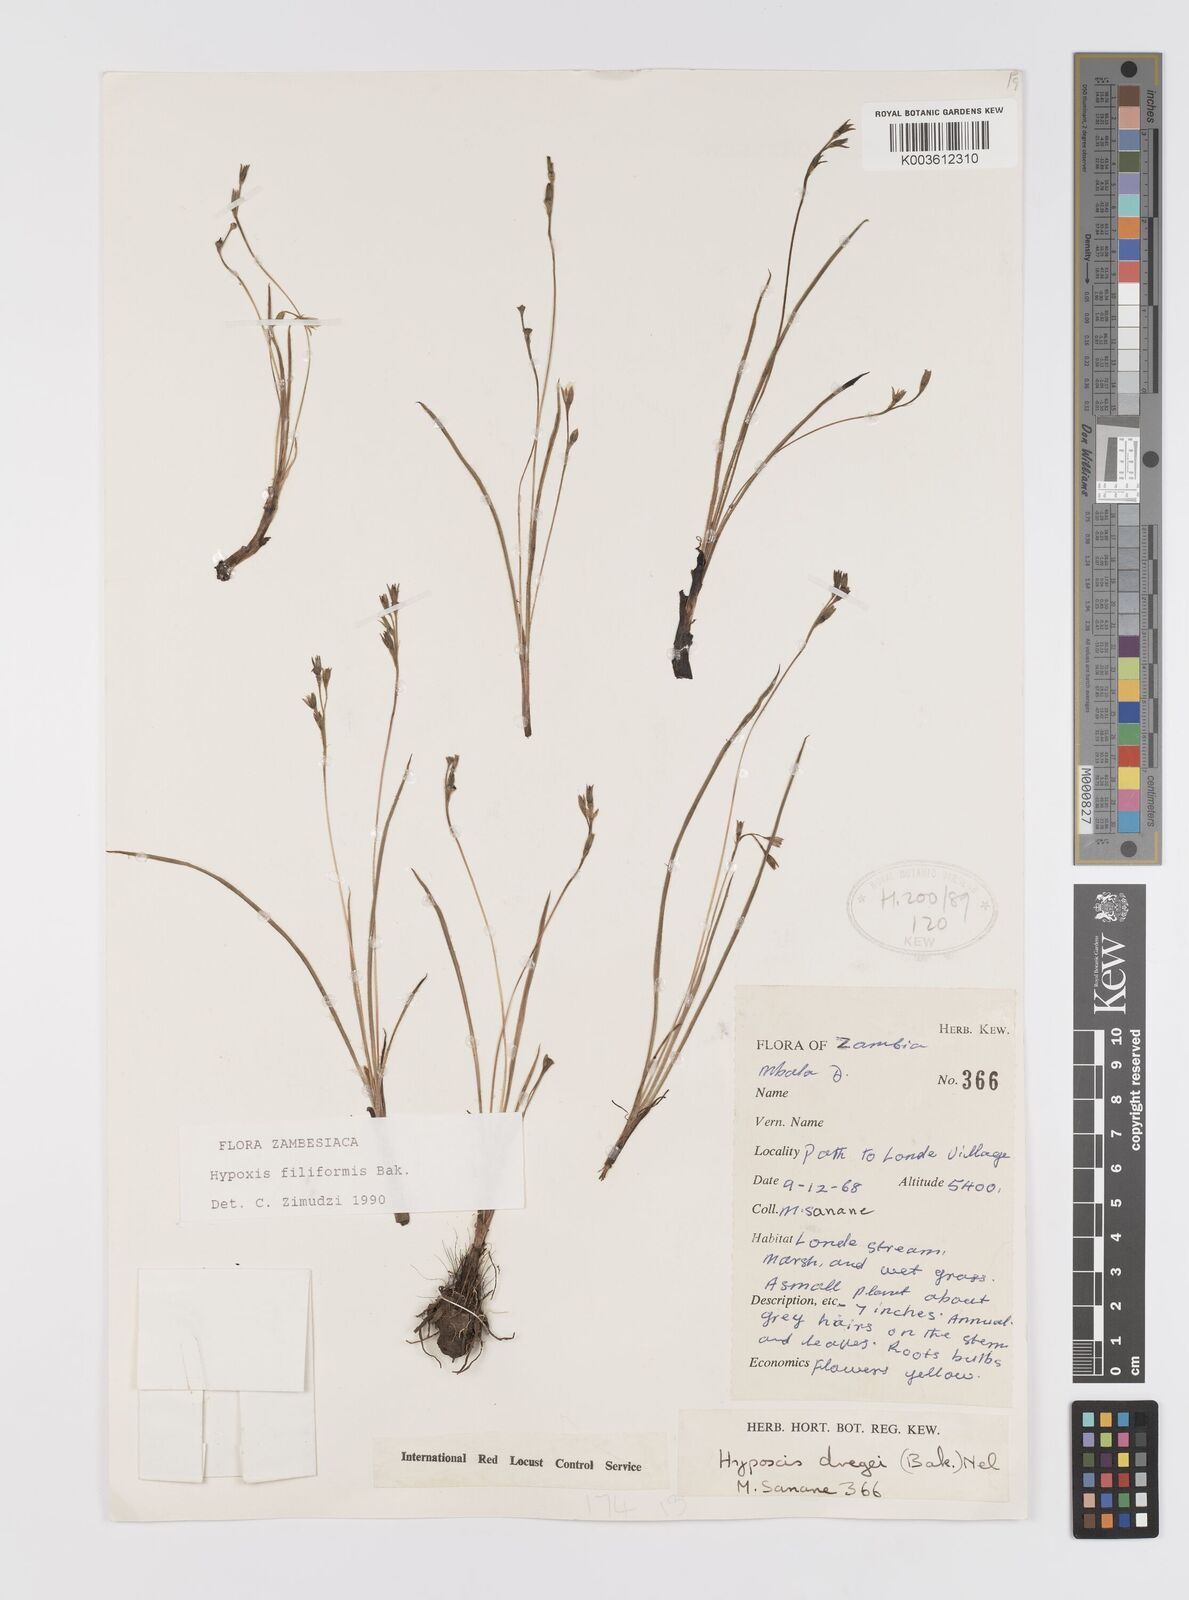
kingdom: Plantae
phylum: Tracheophyta
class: Liliopsida
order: Asparagales
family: Hypoxidaceae
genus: Hypoxis
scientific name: Hypoxis filiformis
